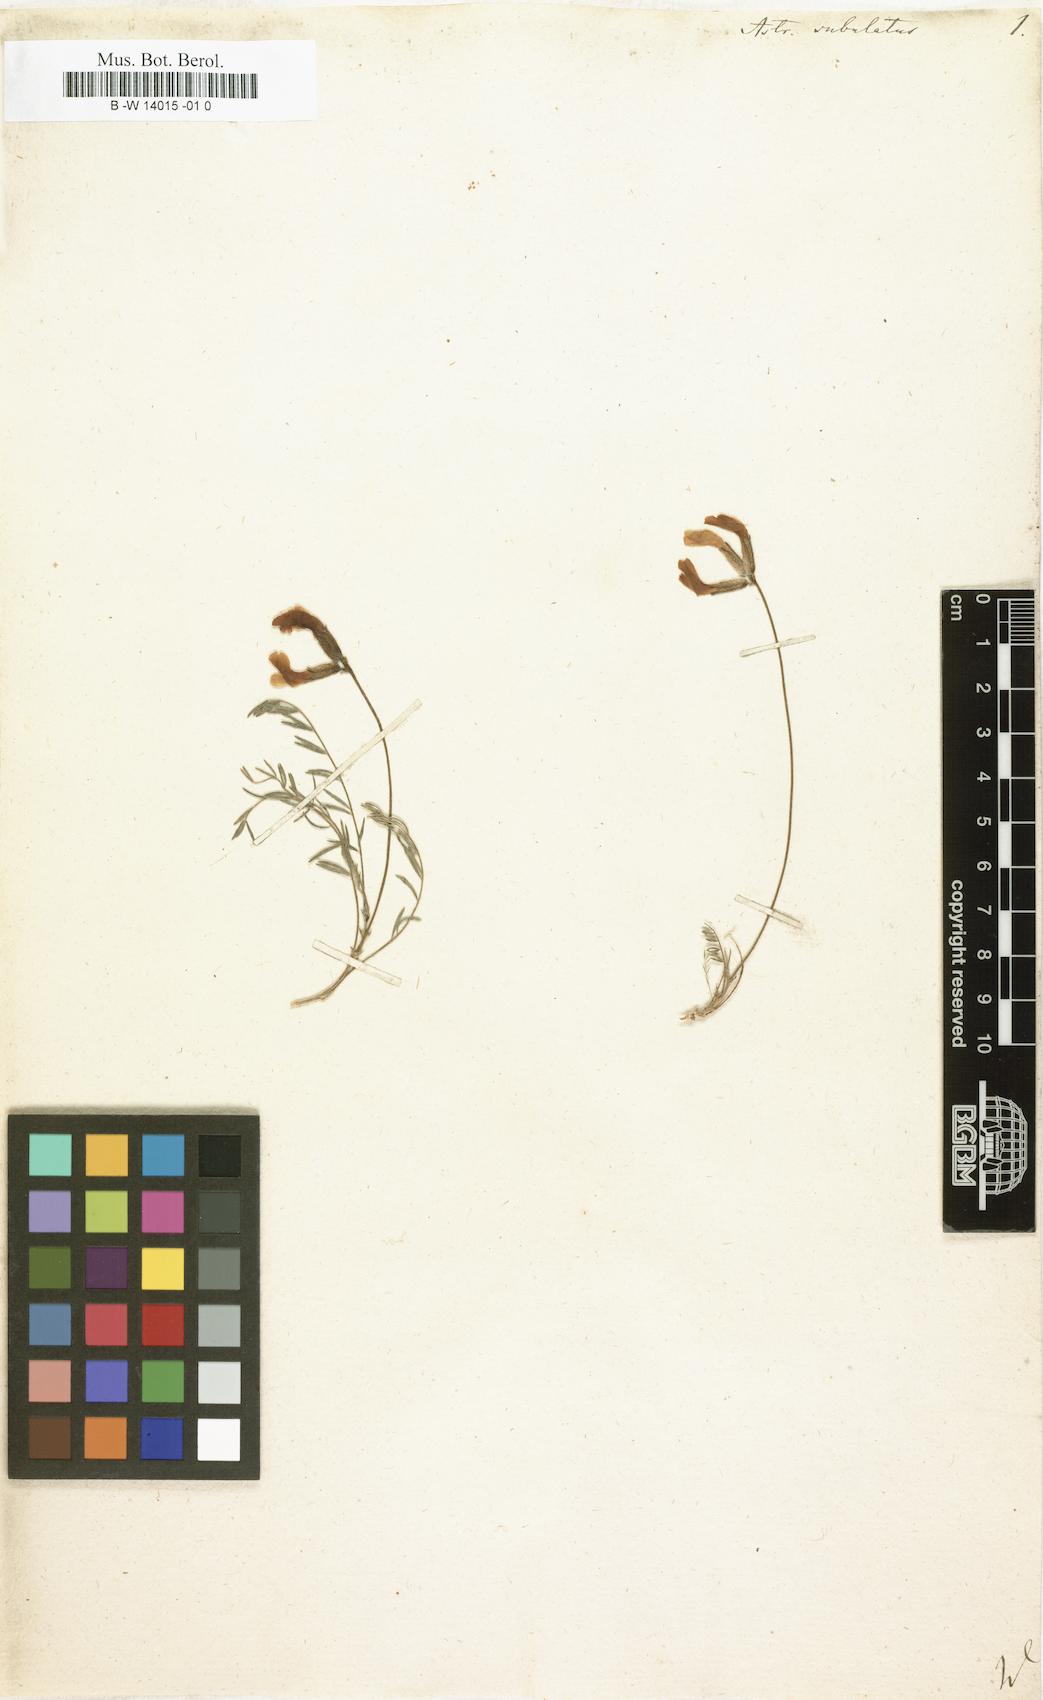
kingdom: Plantae
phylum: Tracheophyta
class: Magnoliopsida
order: Fabales
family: Fabaceae
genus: Astragalus
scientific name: Astragalus anfractuosus
